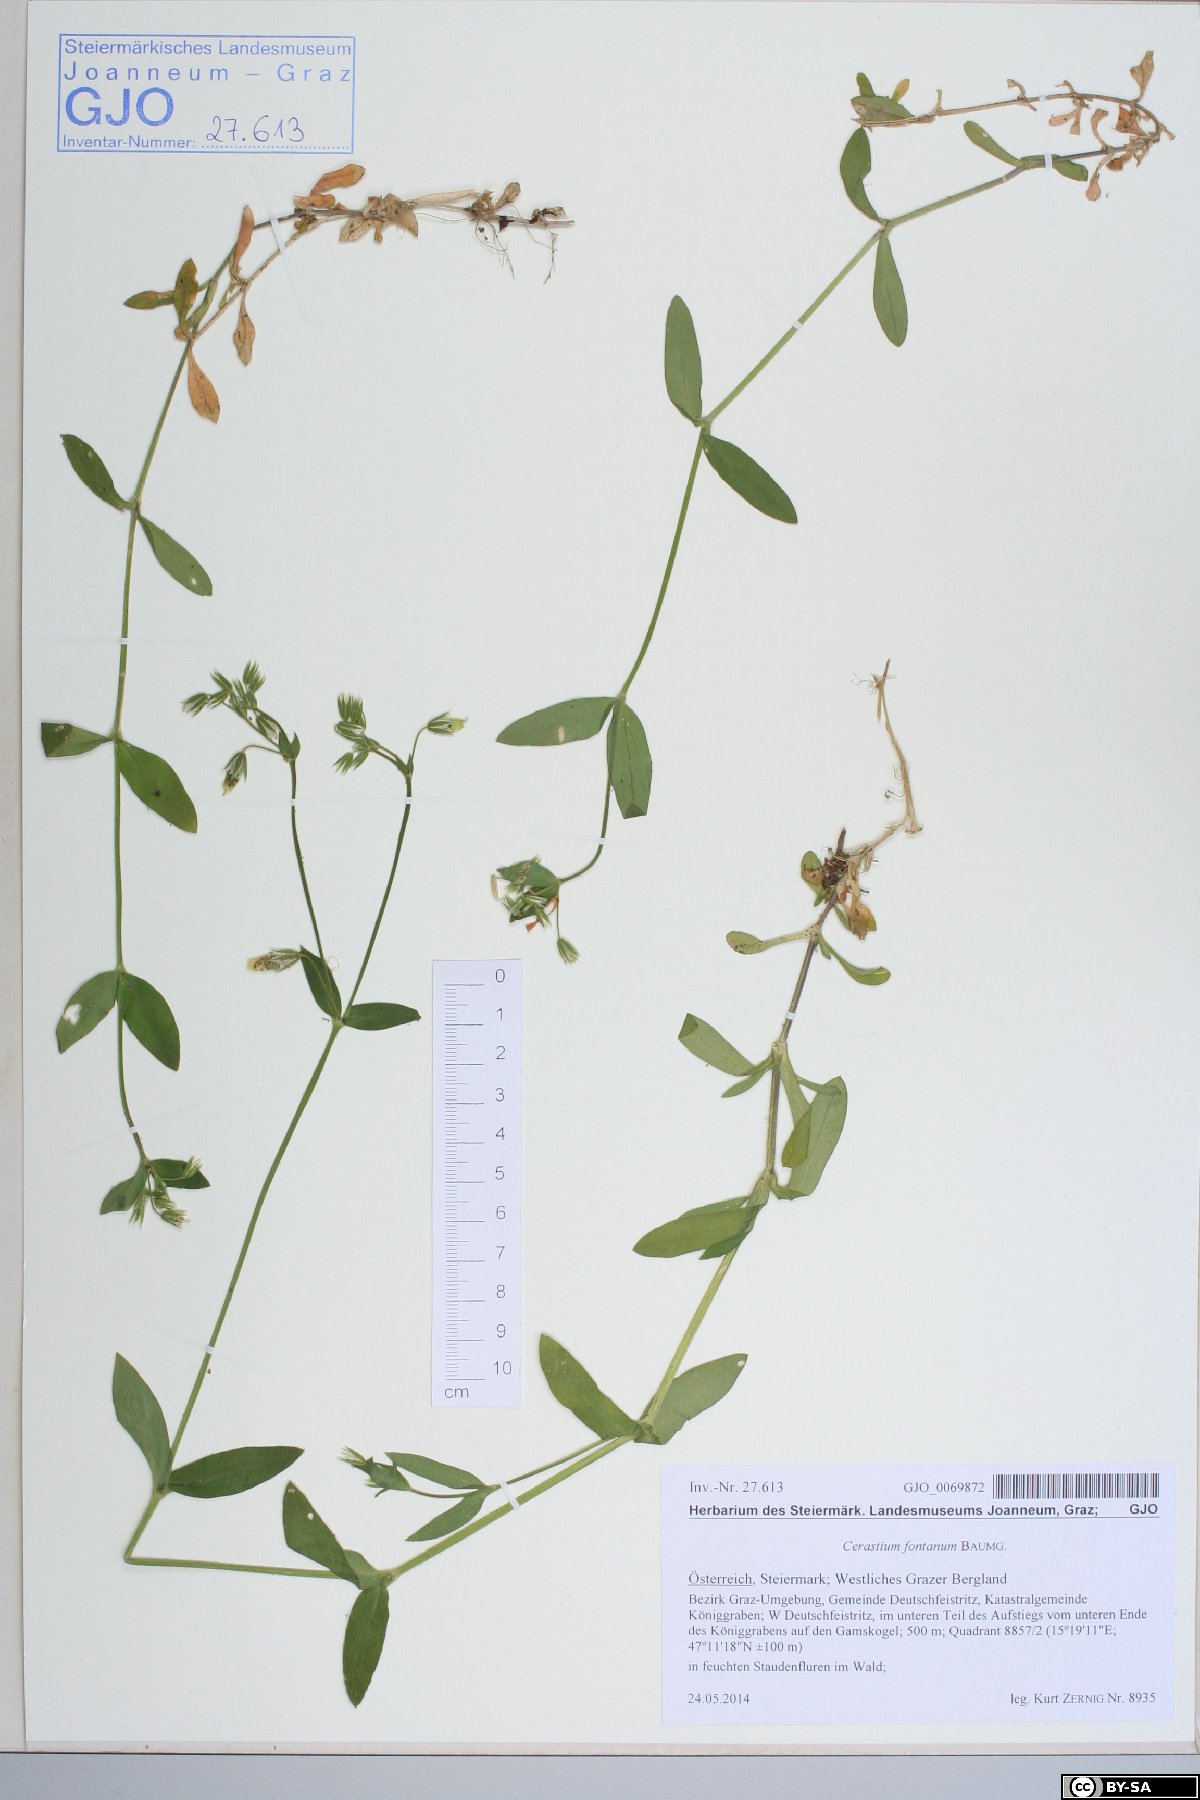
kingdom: Plantae
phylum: Tracheophyta
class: Magnoliopsida
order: Caryophyllales
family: Caryophyllaceae
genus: Cerastium
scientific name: Cerastium fontanum
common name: Common mouse-ear
